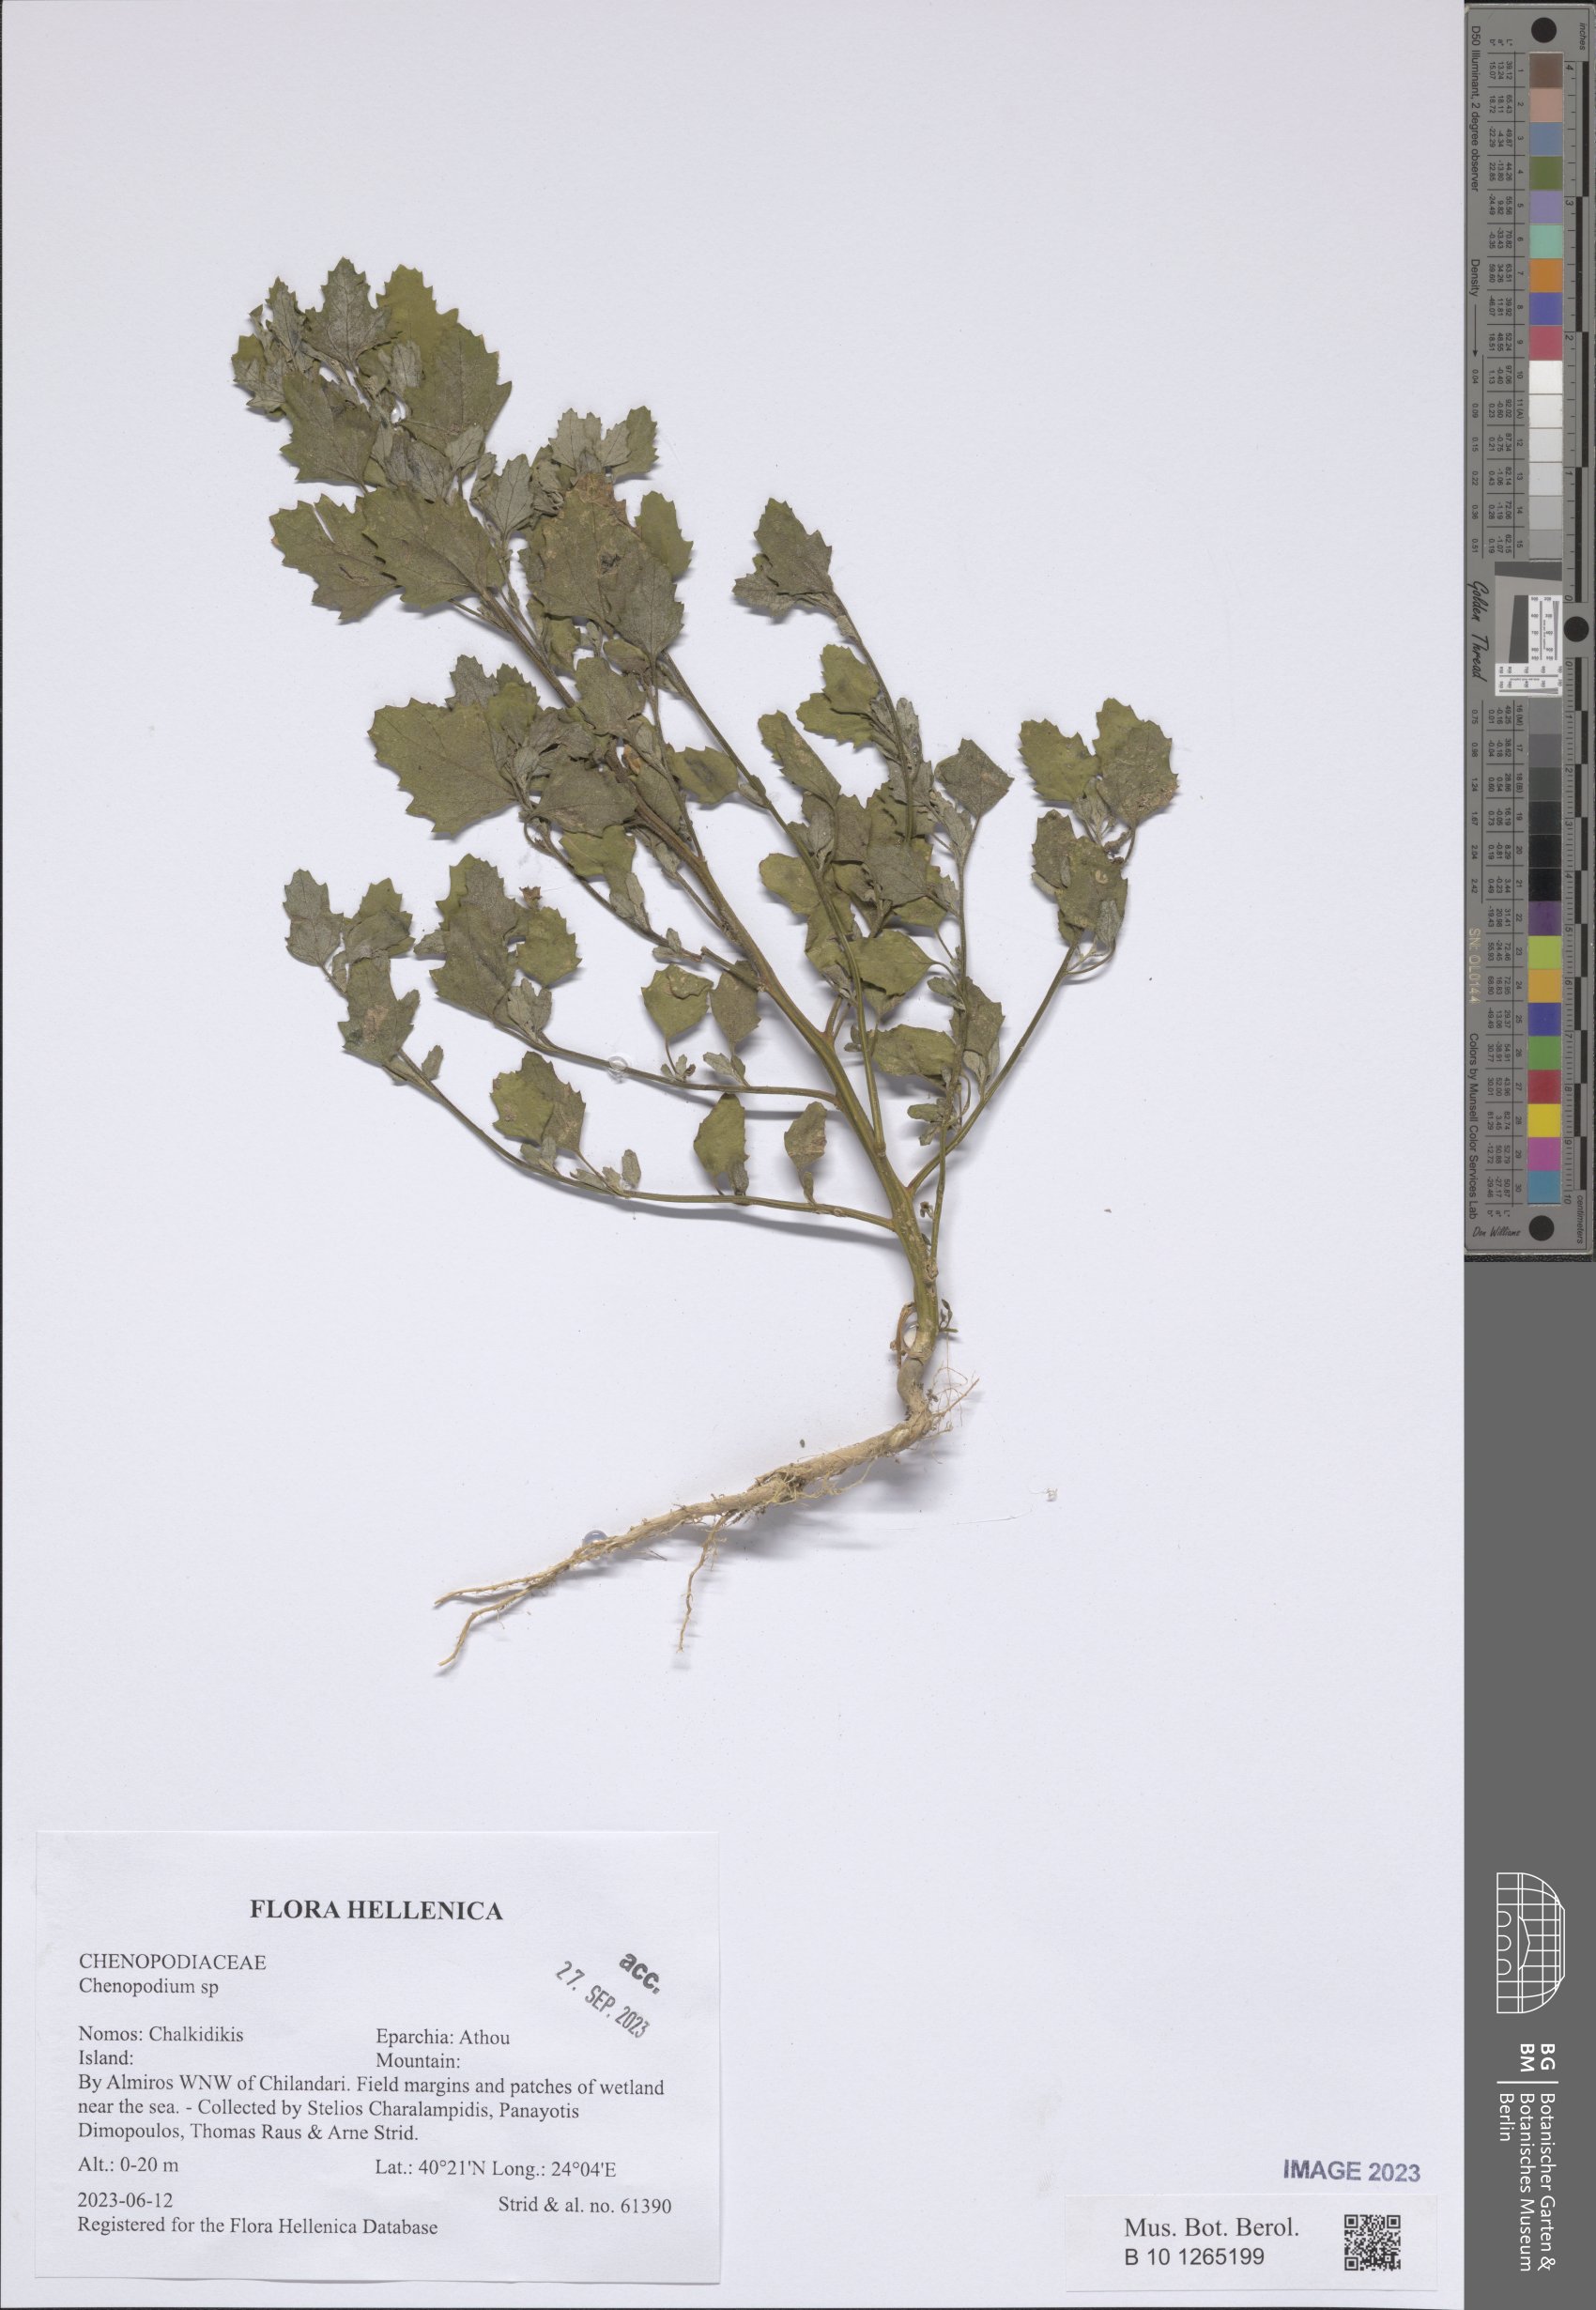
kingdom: Plantae
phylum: Tracheophyta
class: Magnoliopsida
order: Caryophyllales
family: Amaranthaceae
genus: Chenopodium
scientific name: Chenopodium
